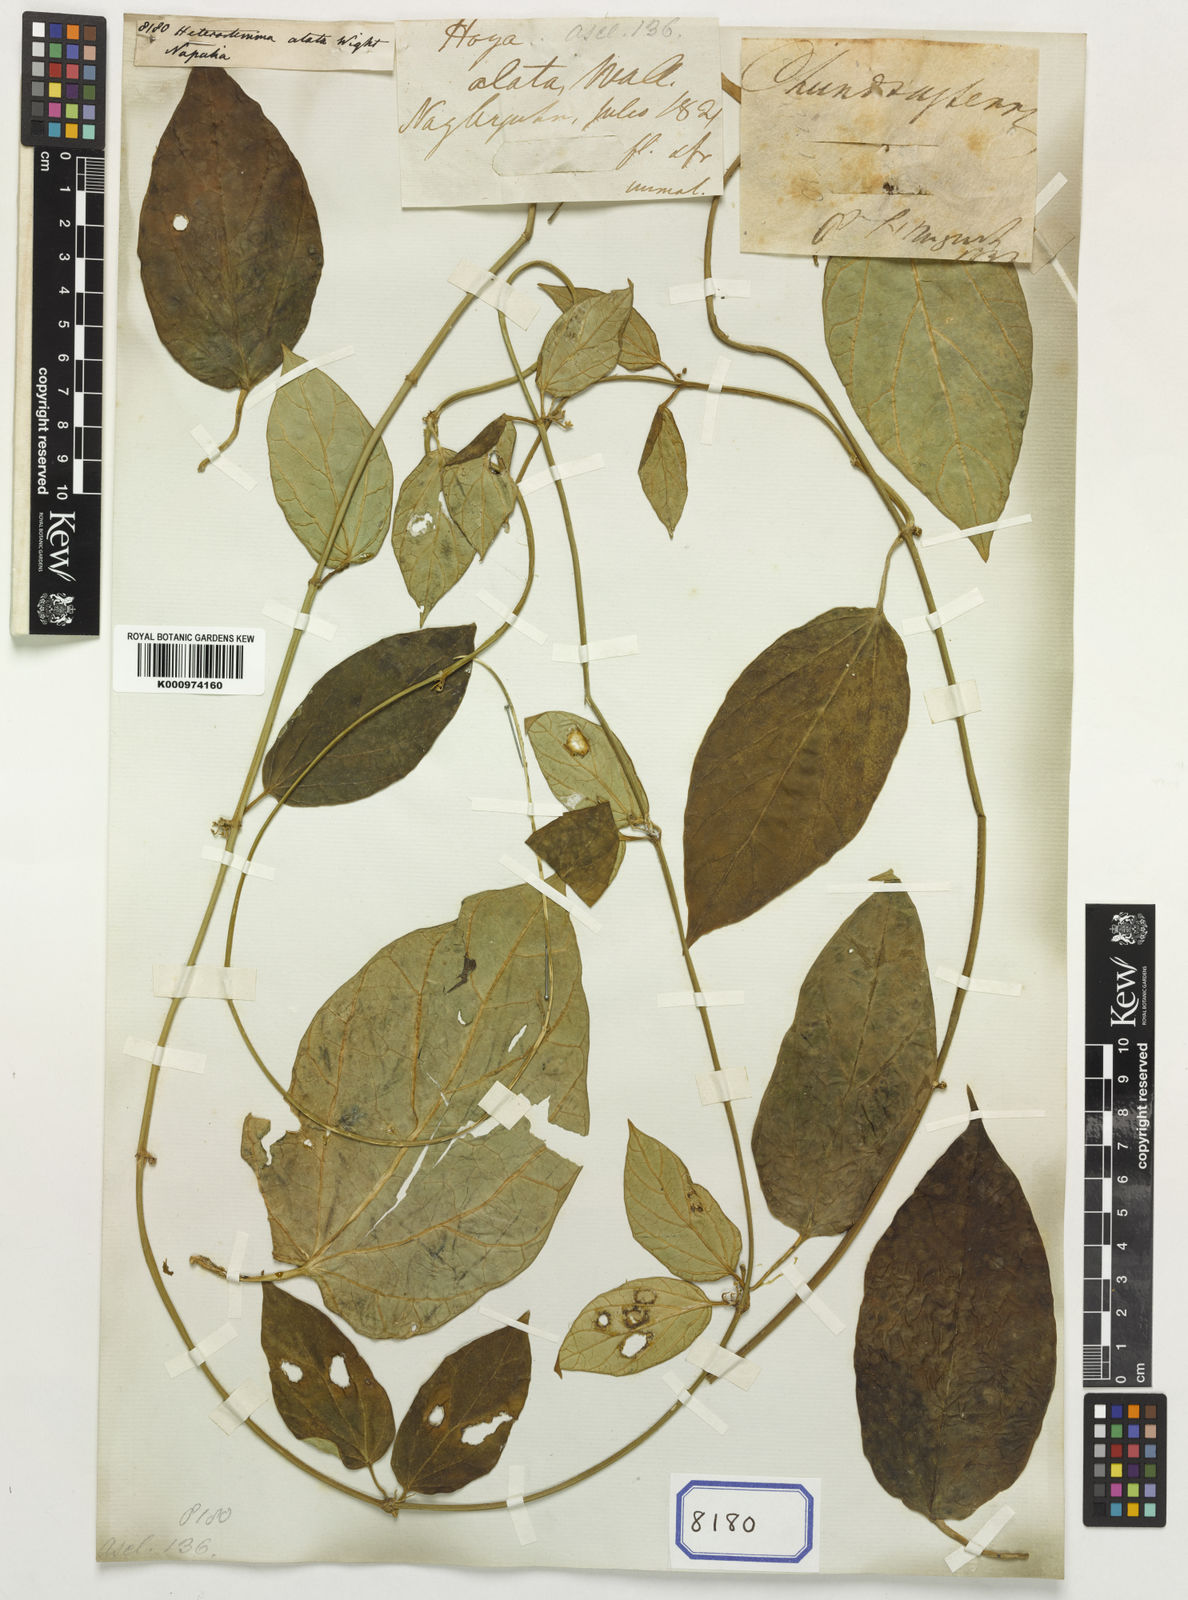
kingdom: Plantae
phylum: Tracheophyta
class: Magnoliopsida
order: Gentianales
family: Apocynaceae
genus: Heterostemma
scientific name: Heterostemma alatum
